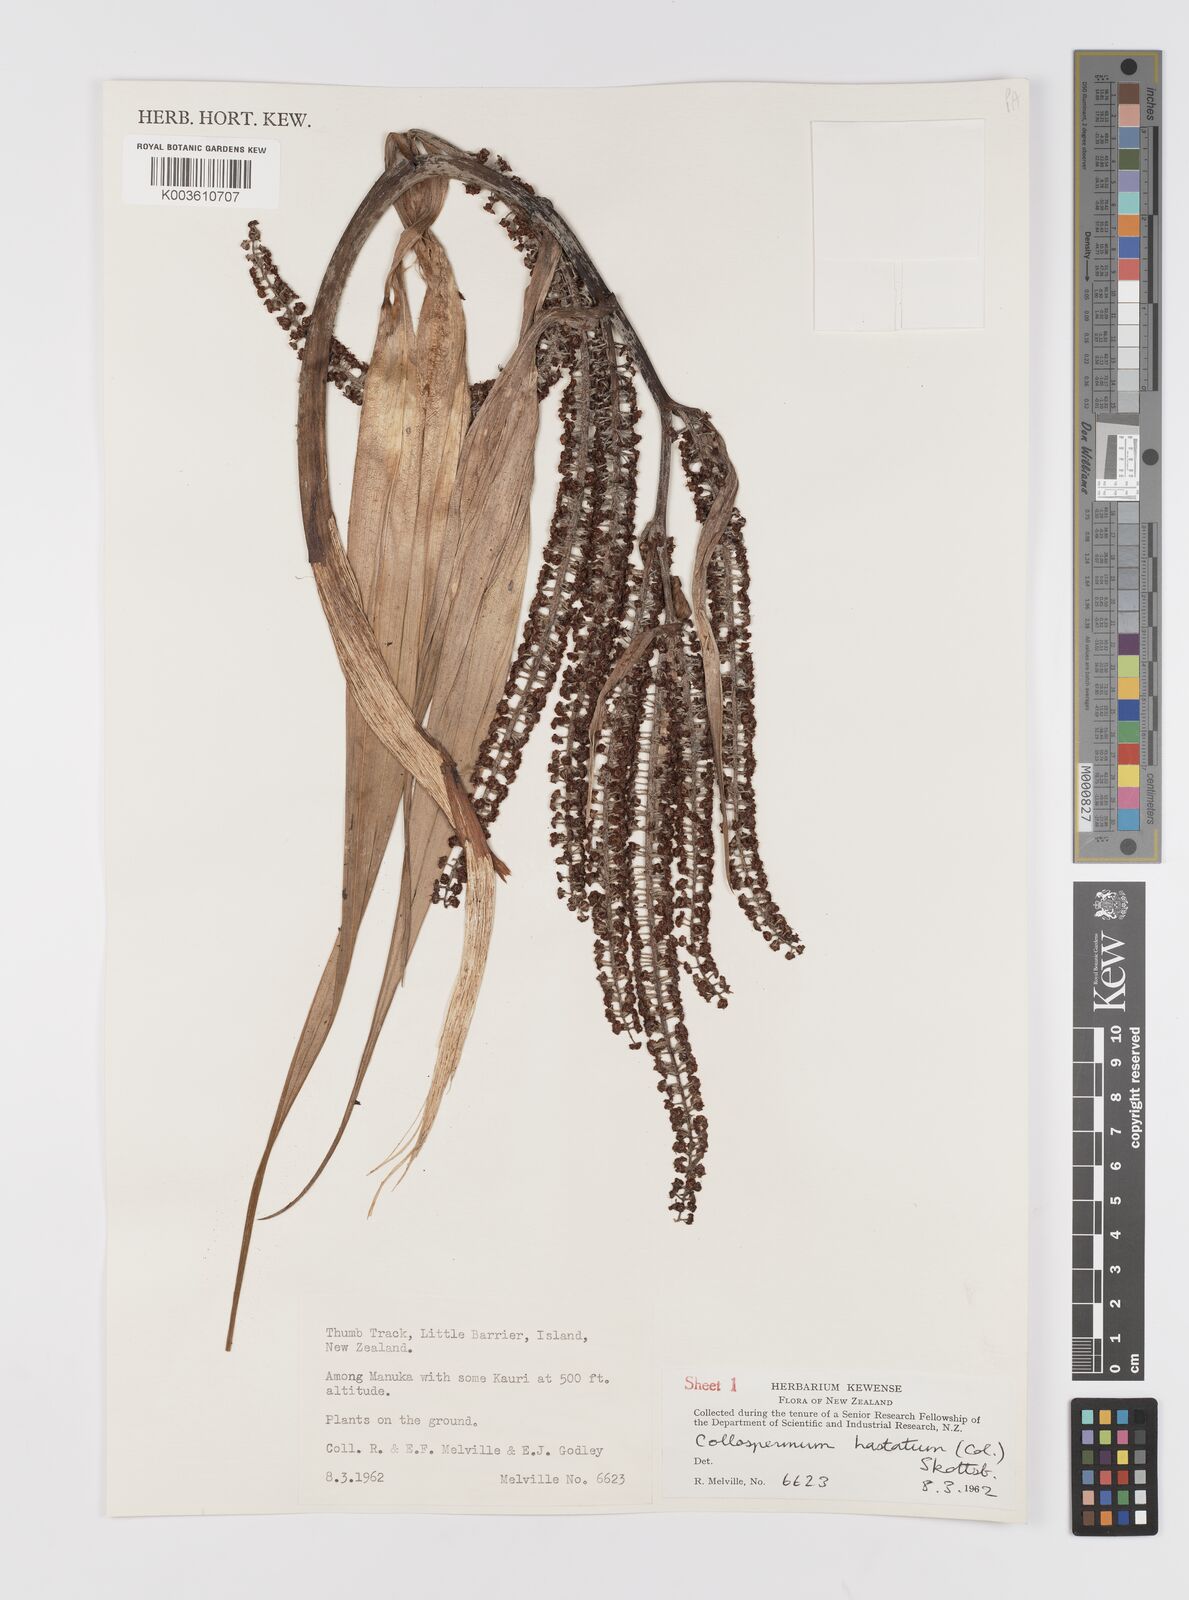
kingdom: Plantae
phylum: Tracheophyta
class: Liliopsida
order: Asparagales
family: Asteliaceae
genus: Astelia
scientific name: Astelia hastata
